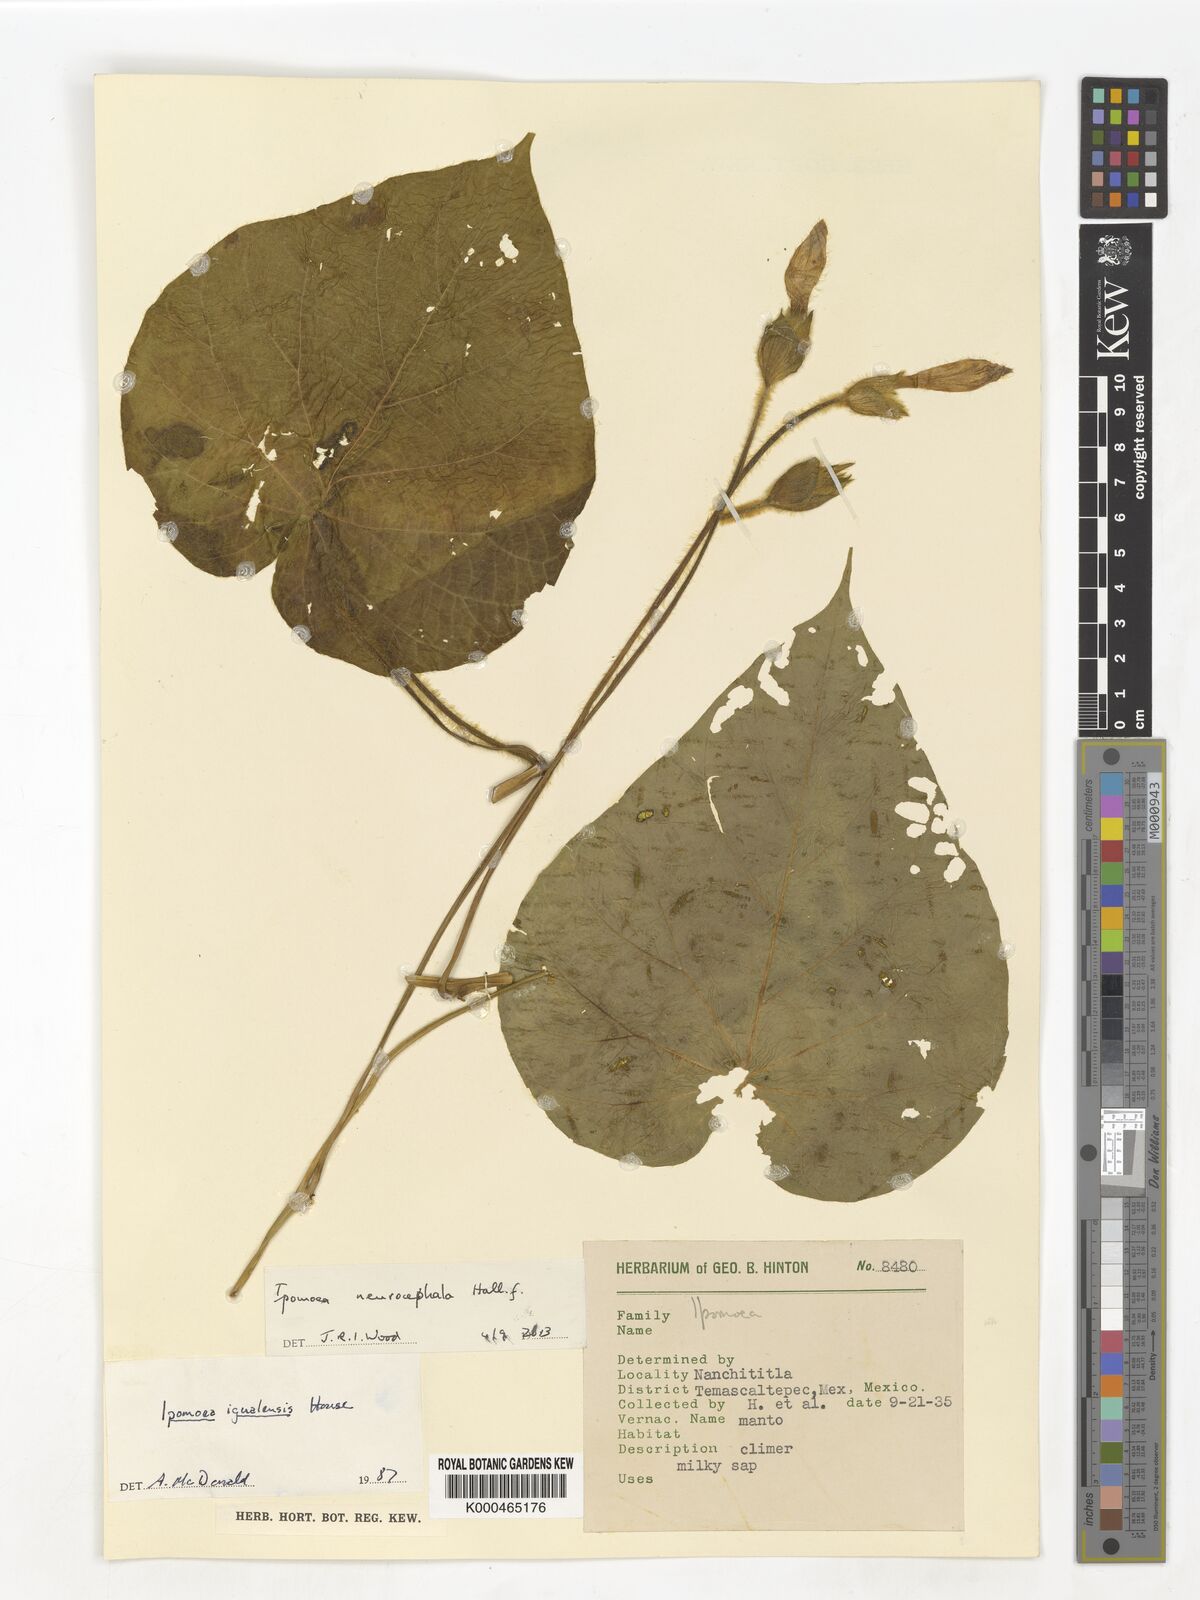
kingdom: Plantae
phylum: Tracheophyta
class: Magnoliopsida
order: Solanales
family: Convolvulaceae
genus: Ipomoea
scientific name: Ipomoea neurocephala
